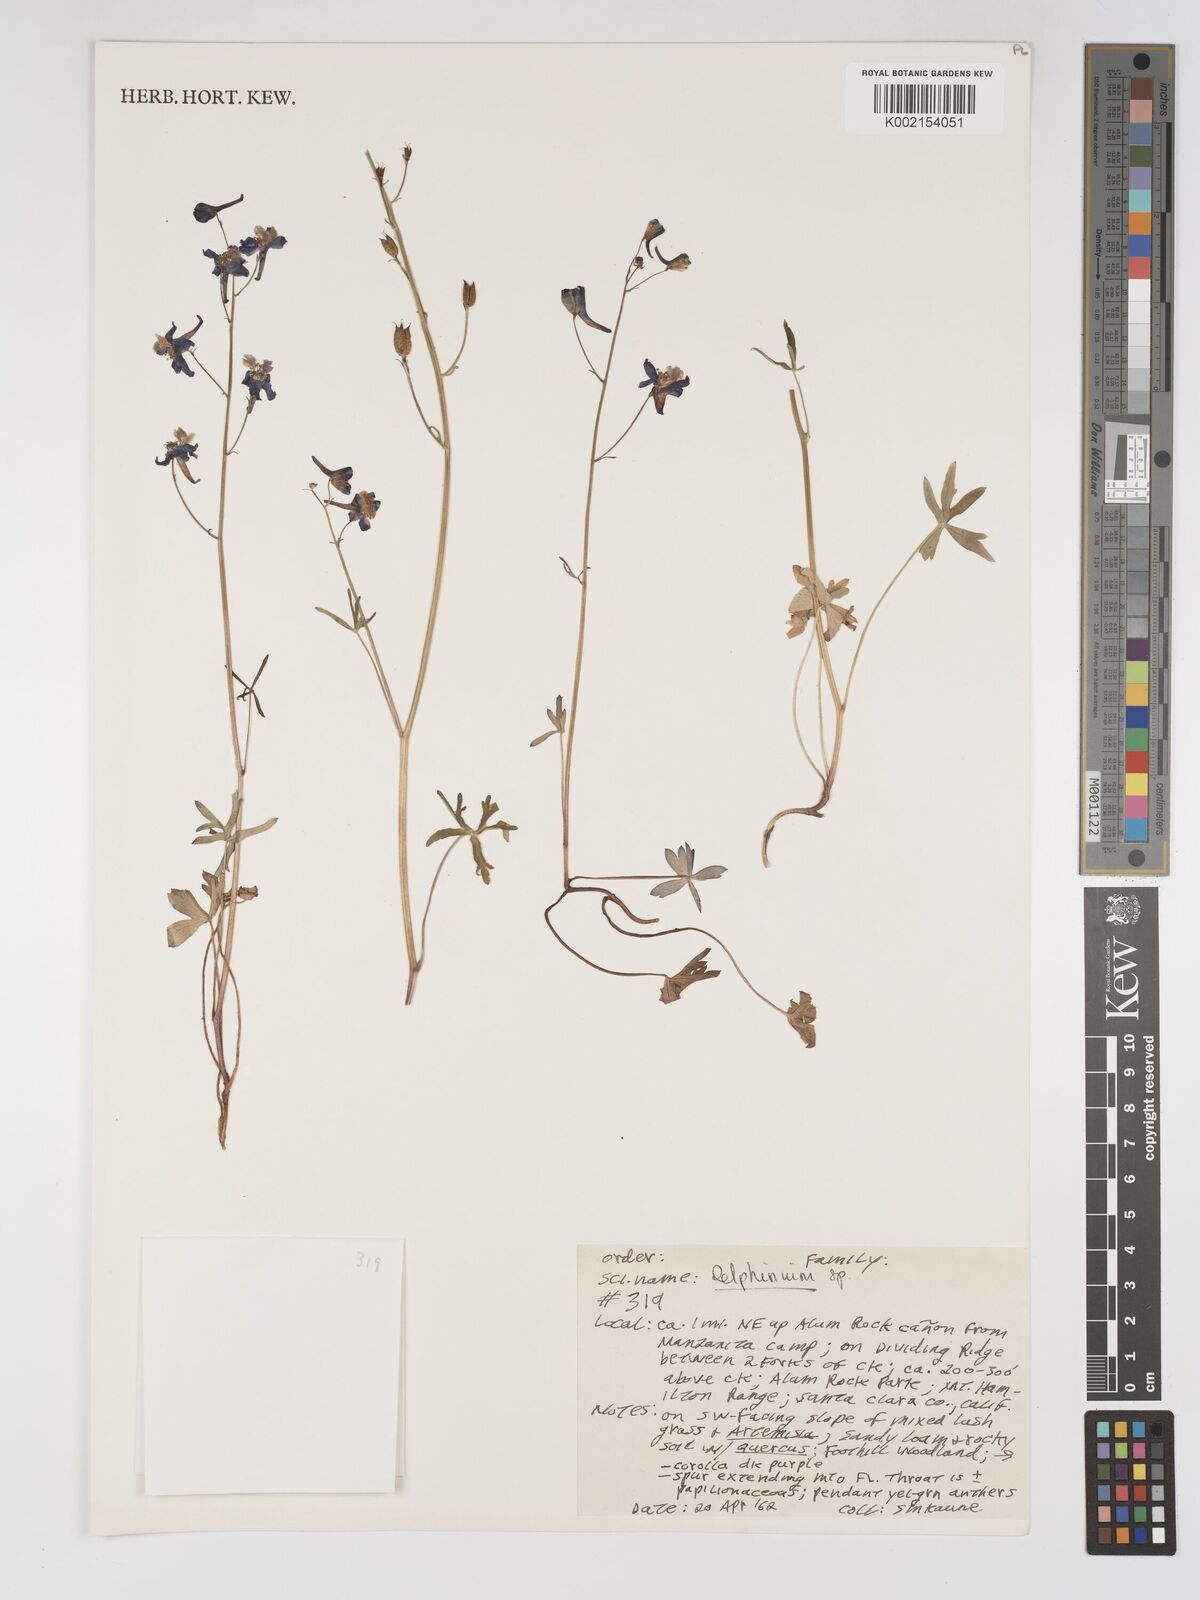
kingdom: Plantae
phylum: Tracheophyta
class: Magnoliopsida
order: Ranunculales
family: Ranunculaceae
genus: Delphinium
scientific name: Delphinium
